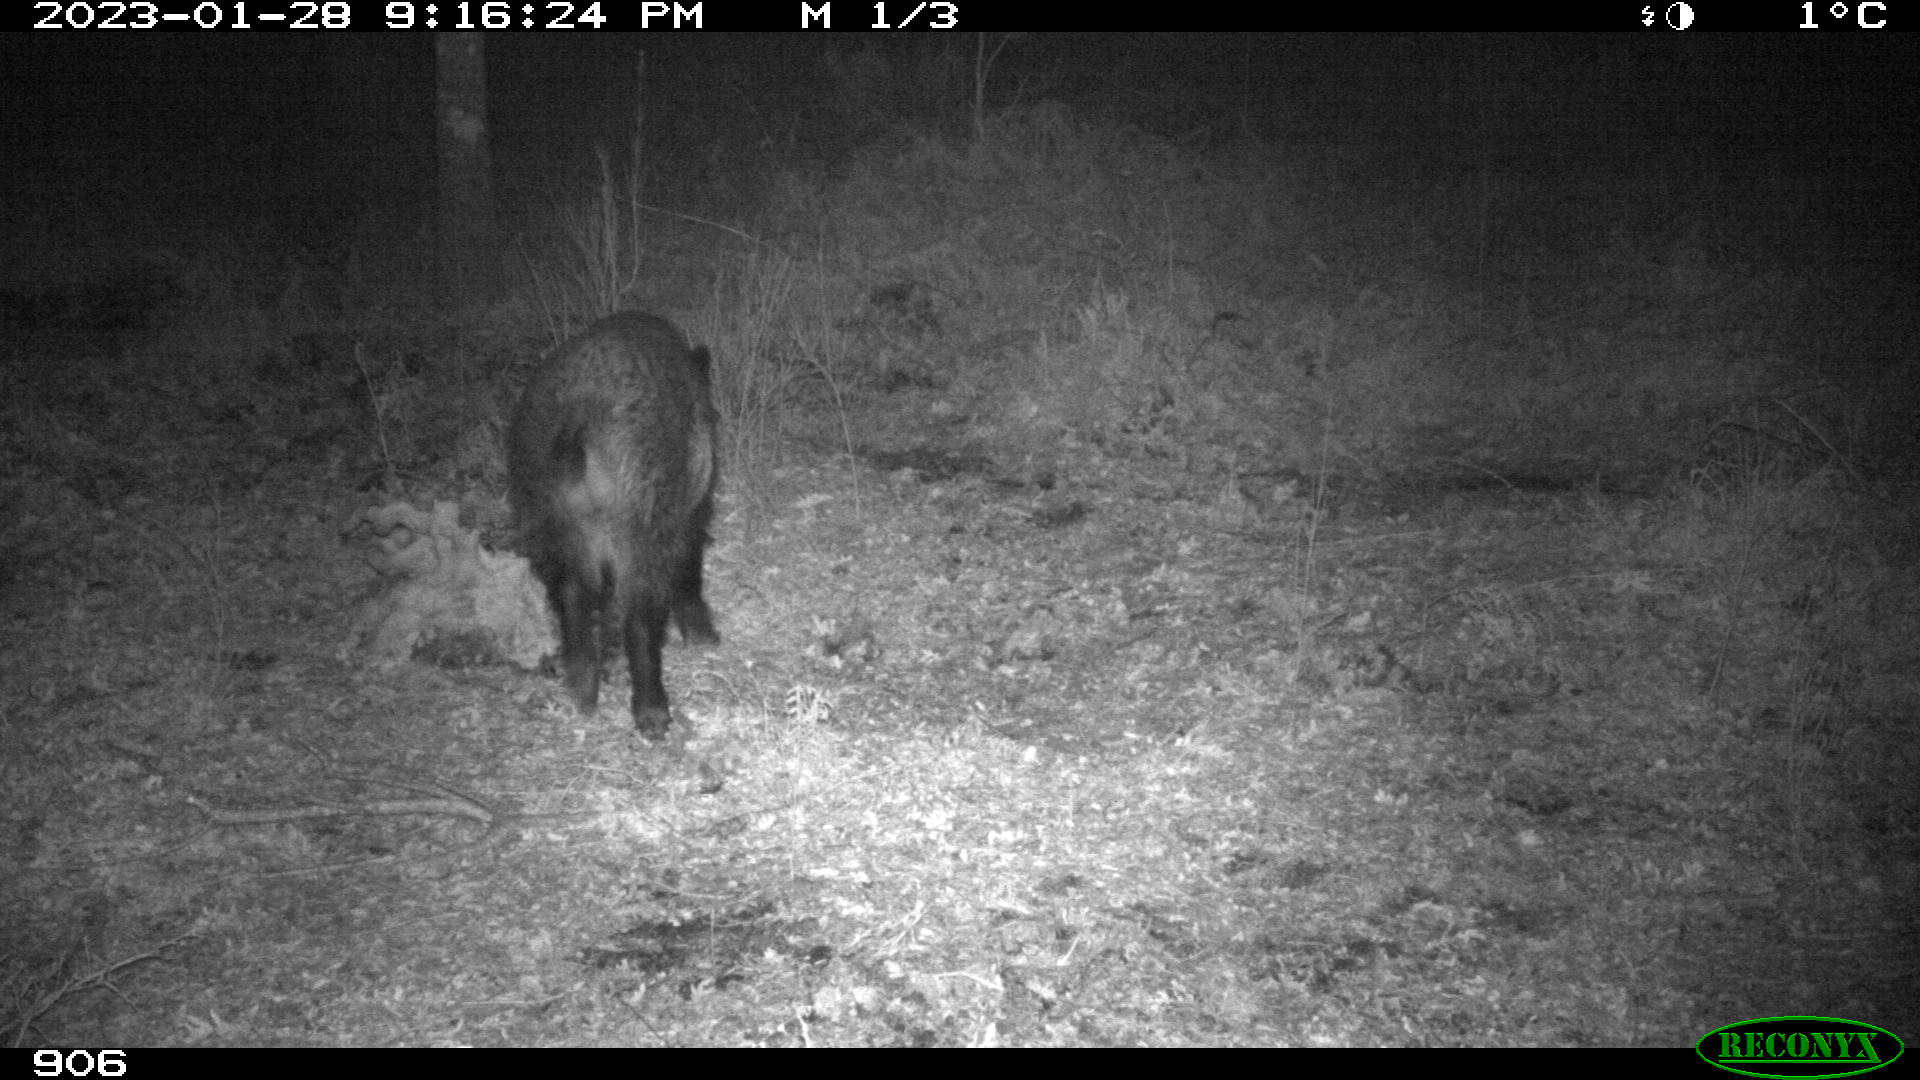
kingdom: Animalia
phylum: Chordata
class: Mammalia
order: Artiodactyla
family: Suidae
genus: Sus
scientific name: Sus scrofa
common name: Wild boar
